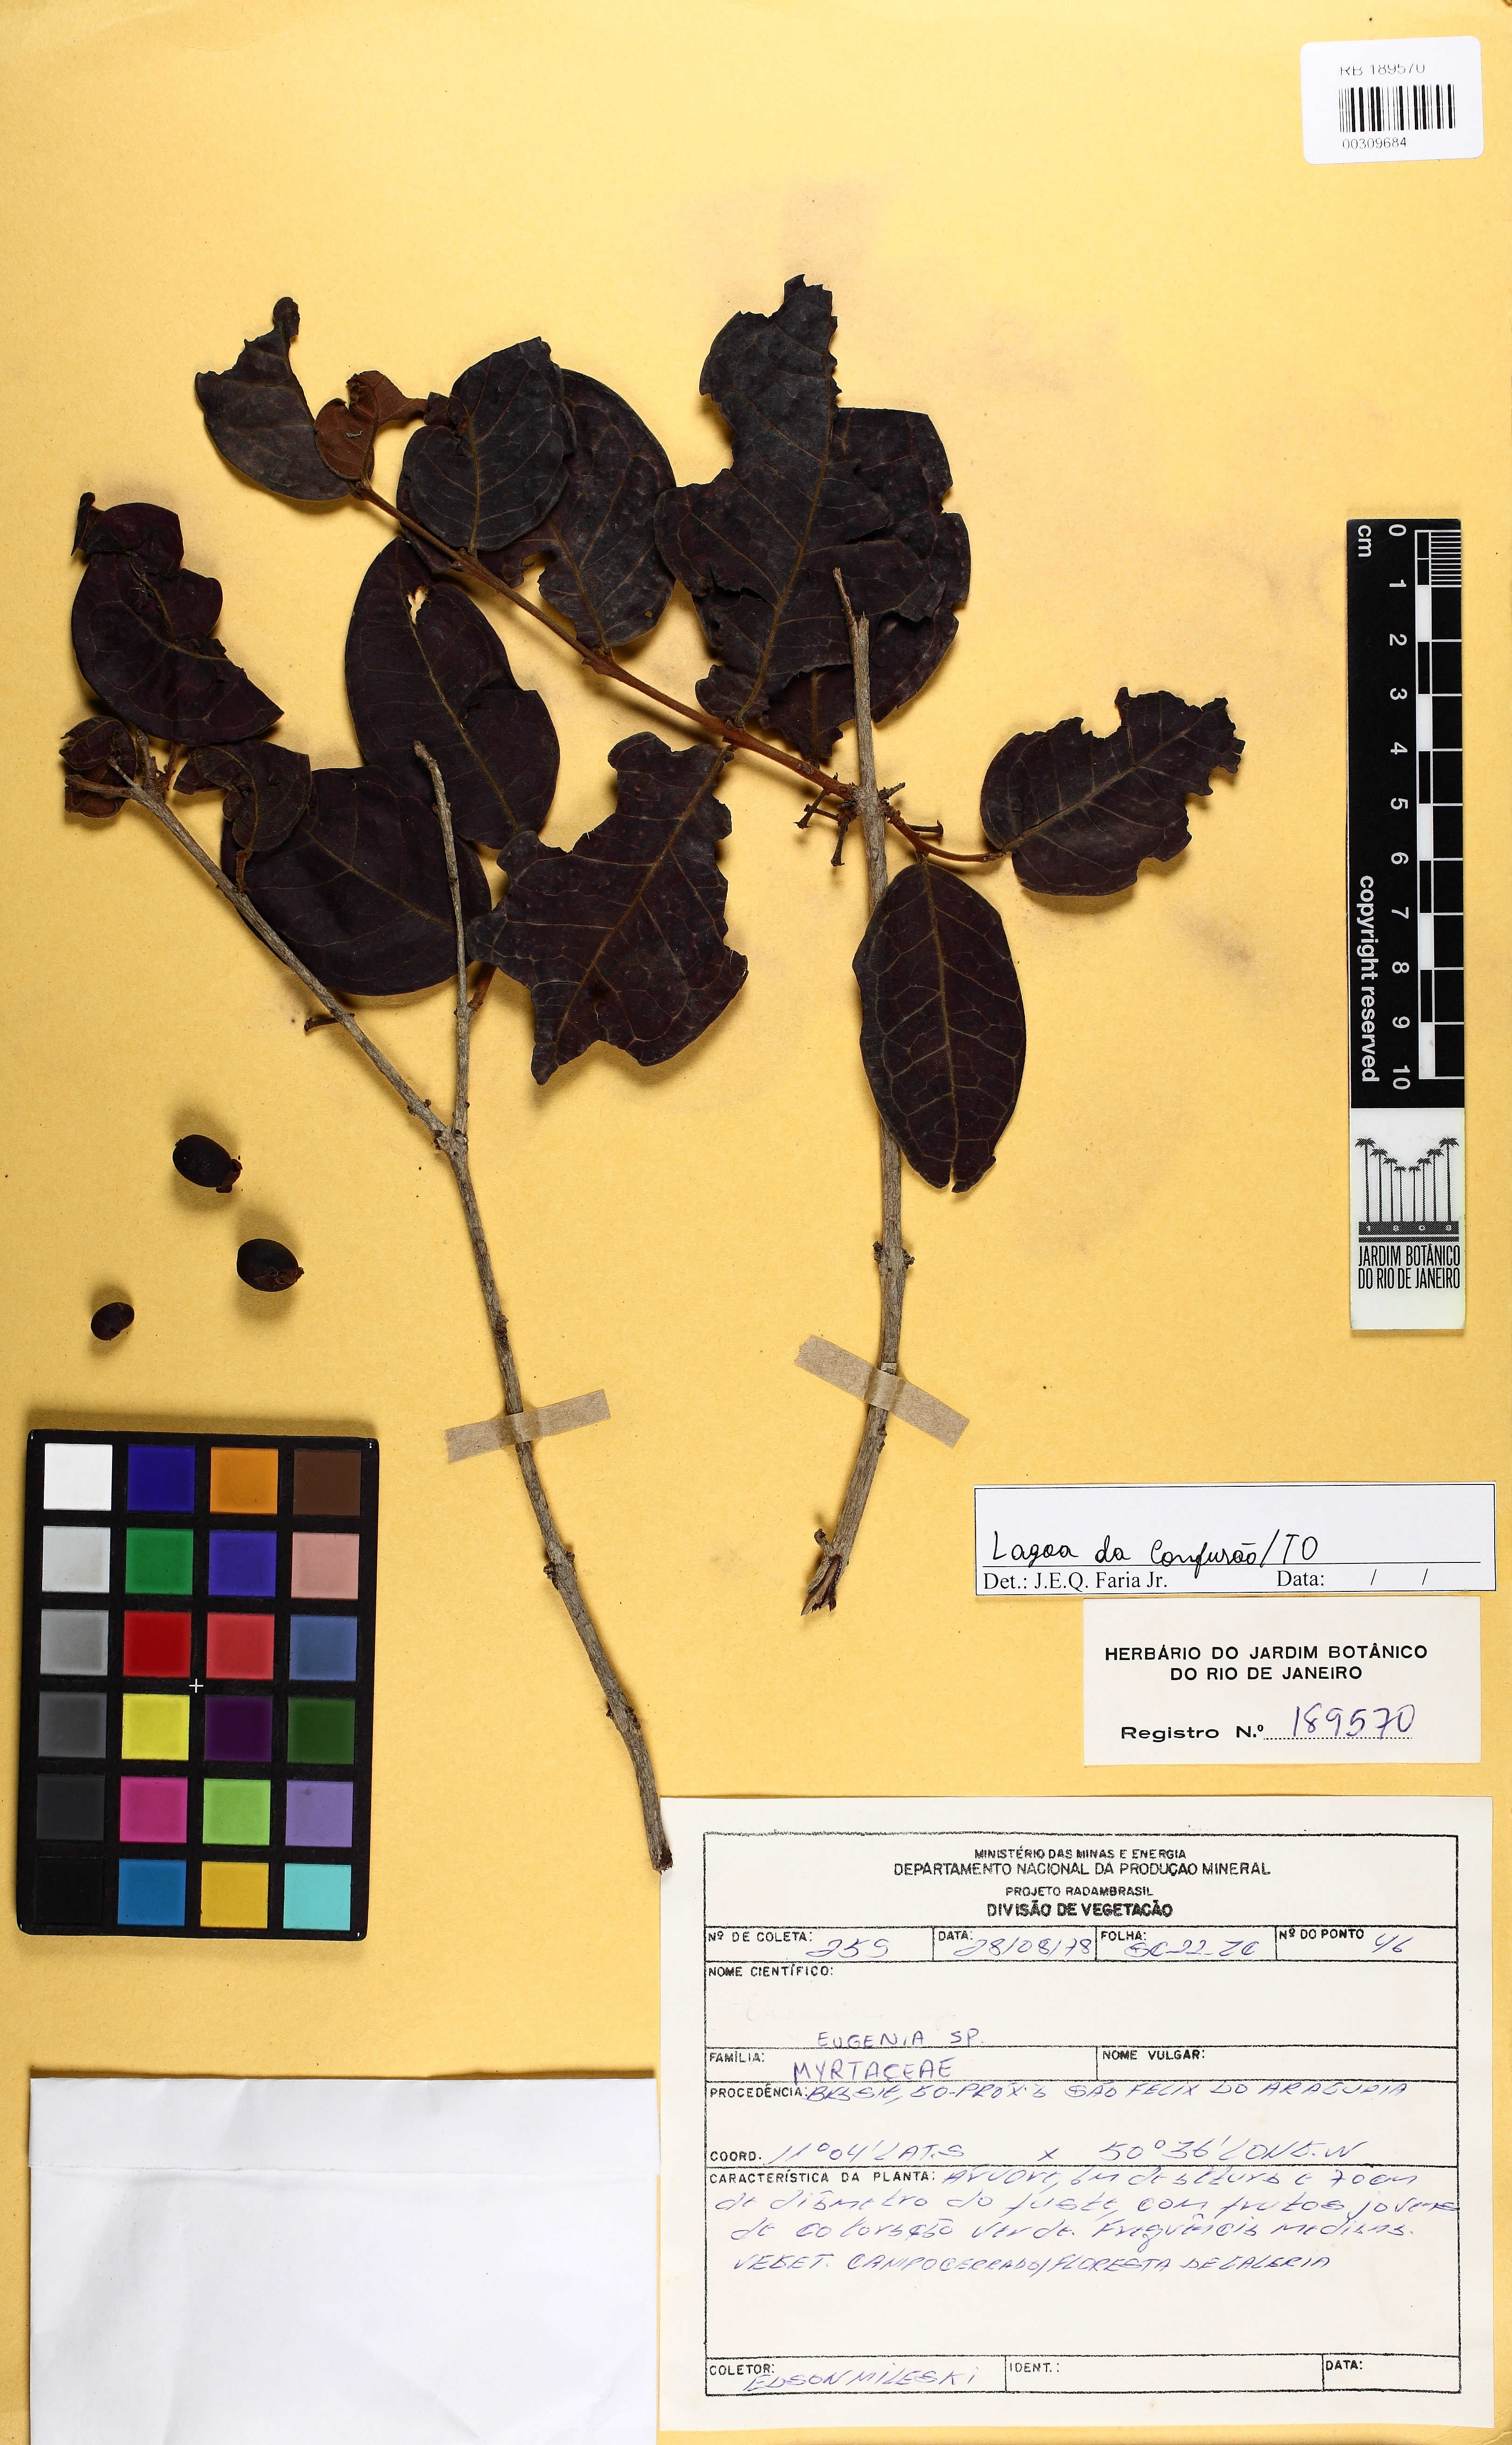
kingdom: Plantae
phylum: Tracheophyta
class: Magnoliopsida
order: Myrtales
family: Myrtaceae
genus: Eugenia
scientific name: Eugenia cerradensis
